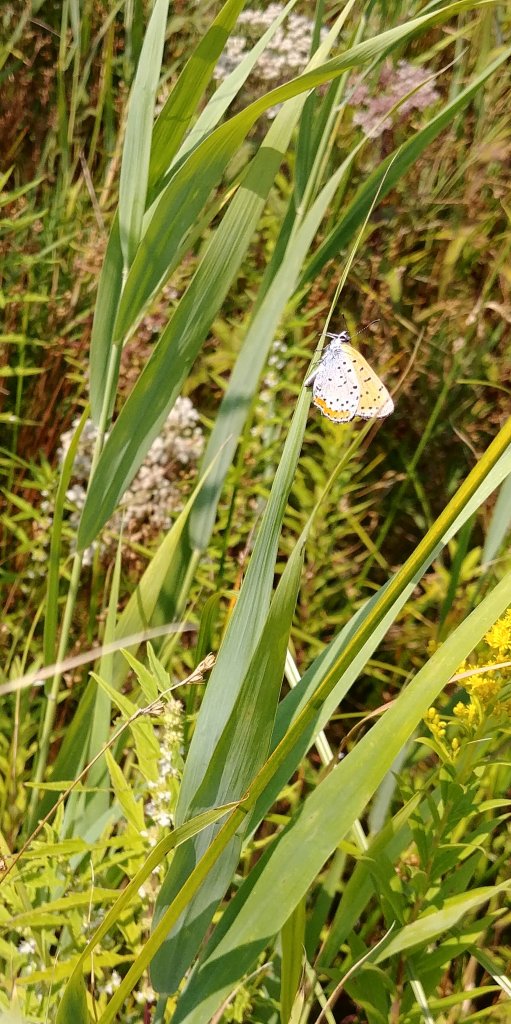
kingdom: Animalia
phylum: Arthropoda
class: Insecta
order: Lepidoptera
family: Sesiidae
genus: Sesia
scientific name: Sesia Lycaena hyllus
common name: Bronze Copper
